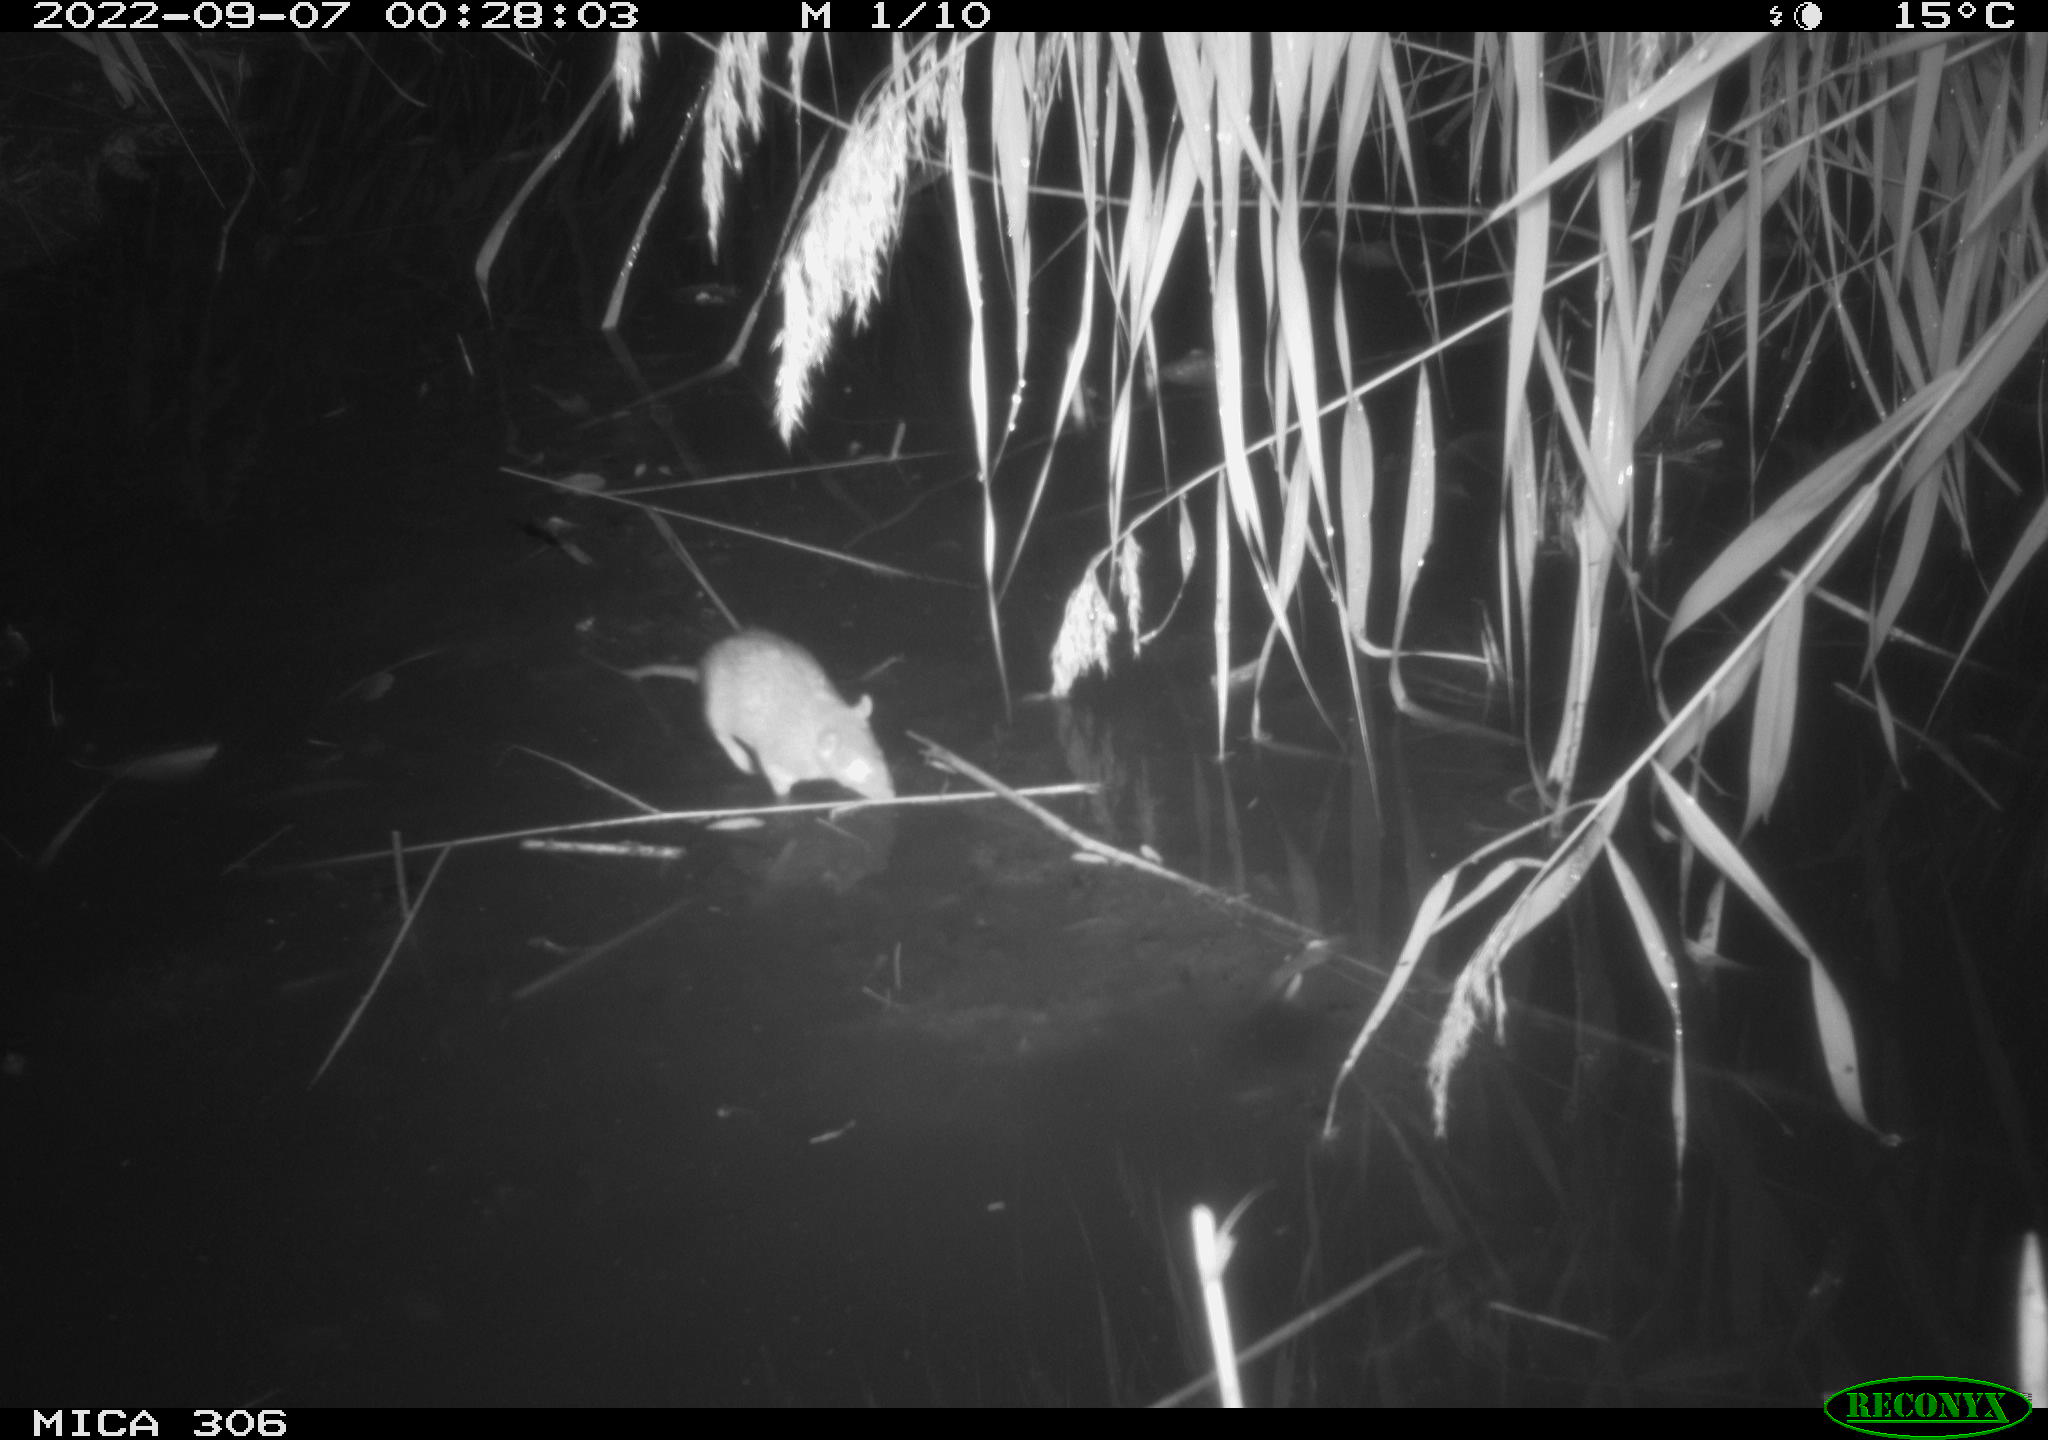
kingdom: Animalia
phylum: Chordata
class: Mammalia
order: Rodentia
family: Muridae
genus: Rattus
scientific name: Rattus norvegicus
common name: Brown rat
